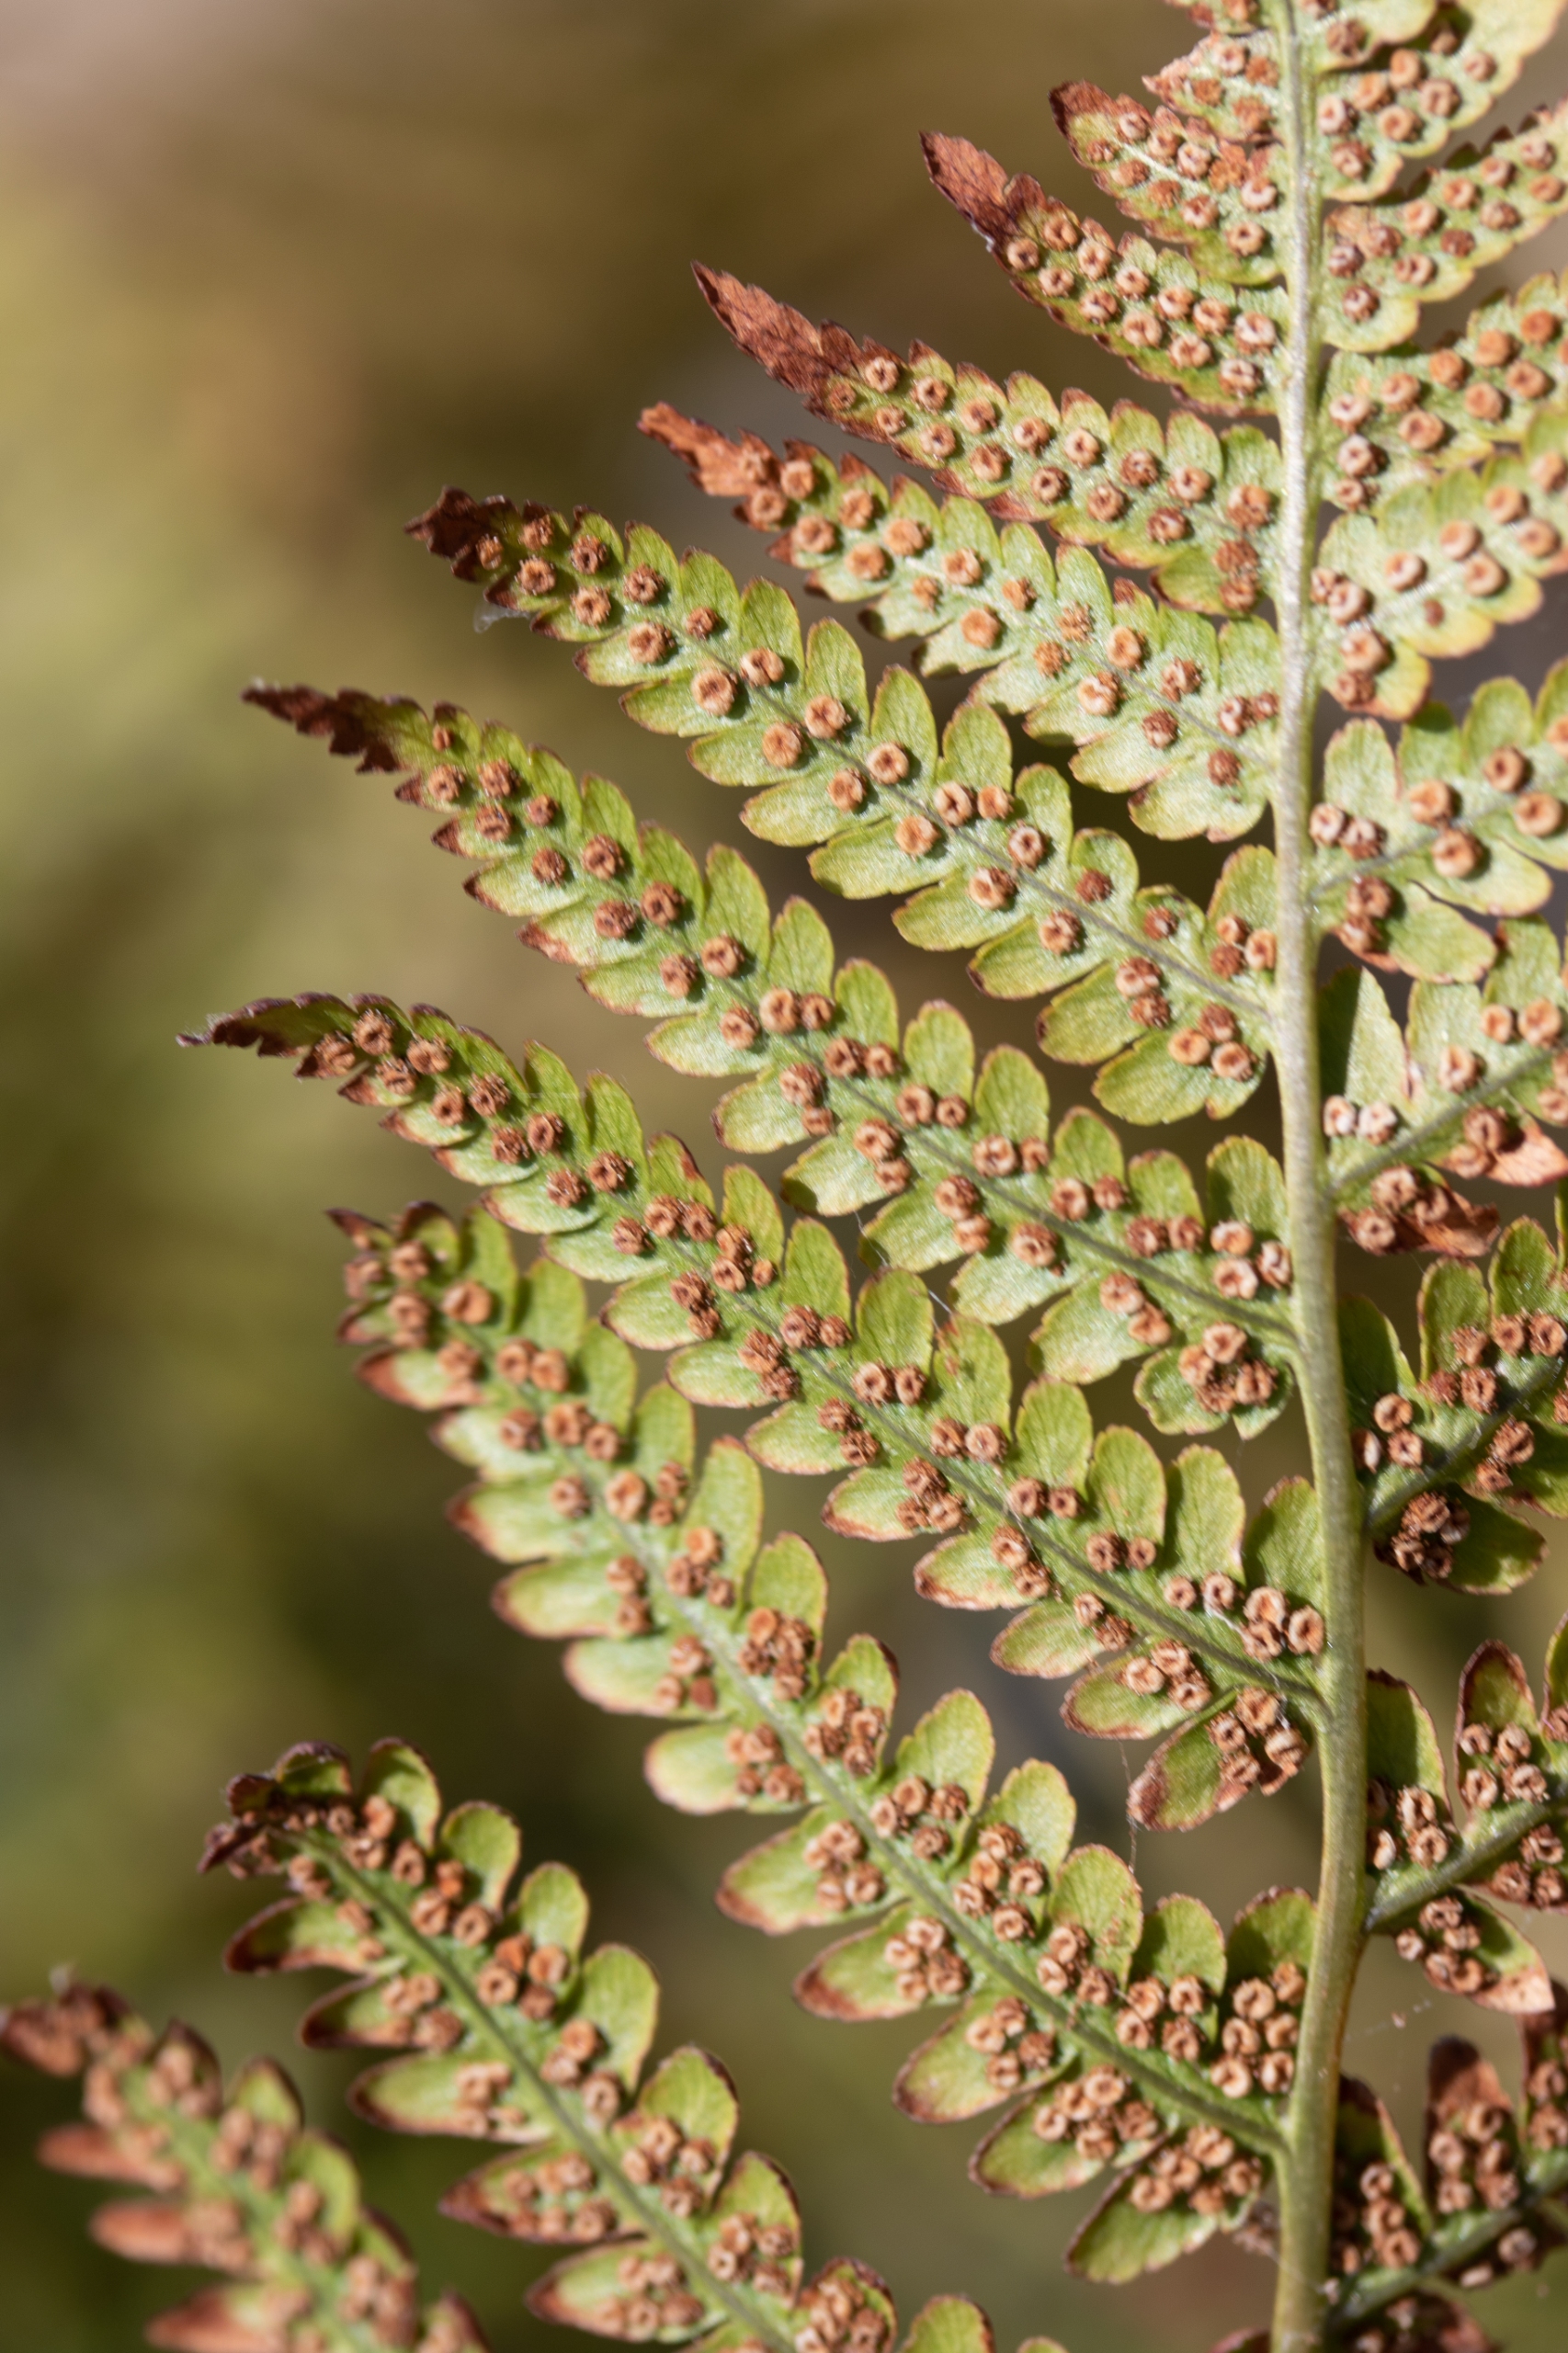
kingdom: Plantae
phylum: Tracheophyta
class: Polypodiopsida
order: Polypodiales
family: Dryopteridaceae
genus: Dryopteris
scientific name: Dryopteris filix-mas
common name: Almindelig mangeløv
